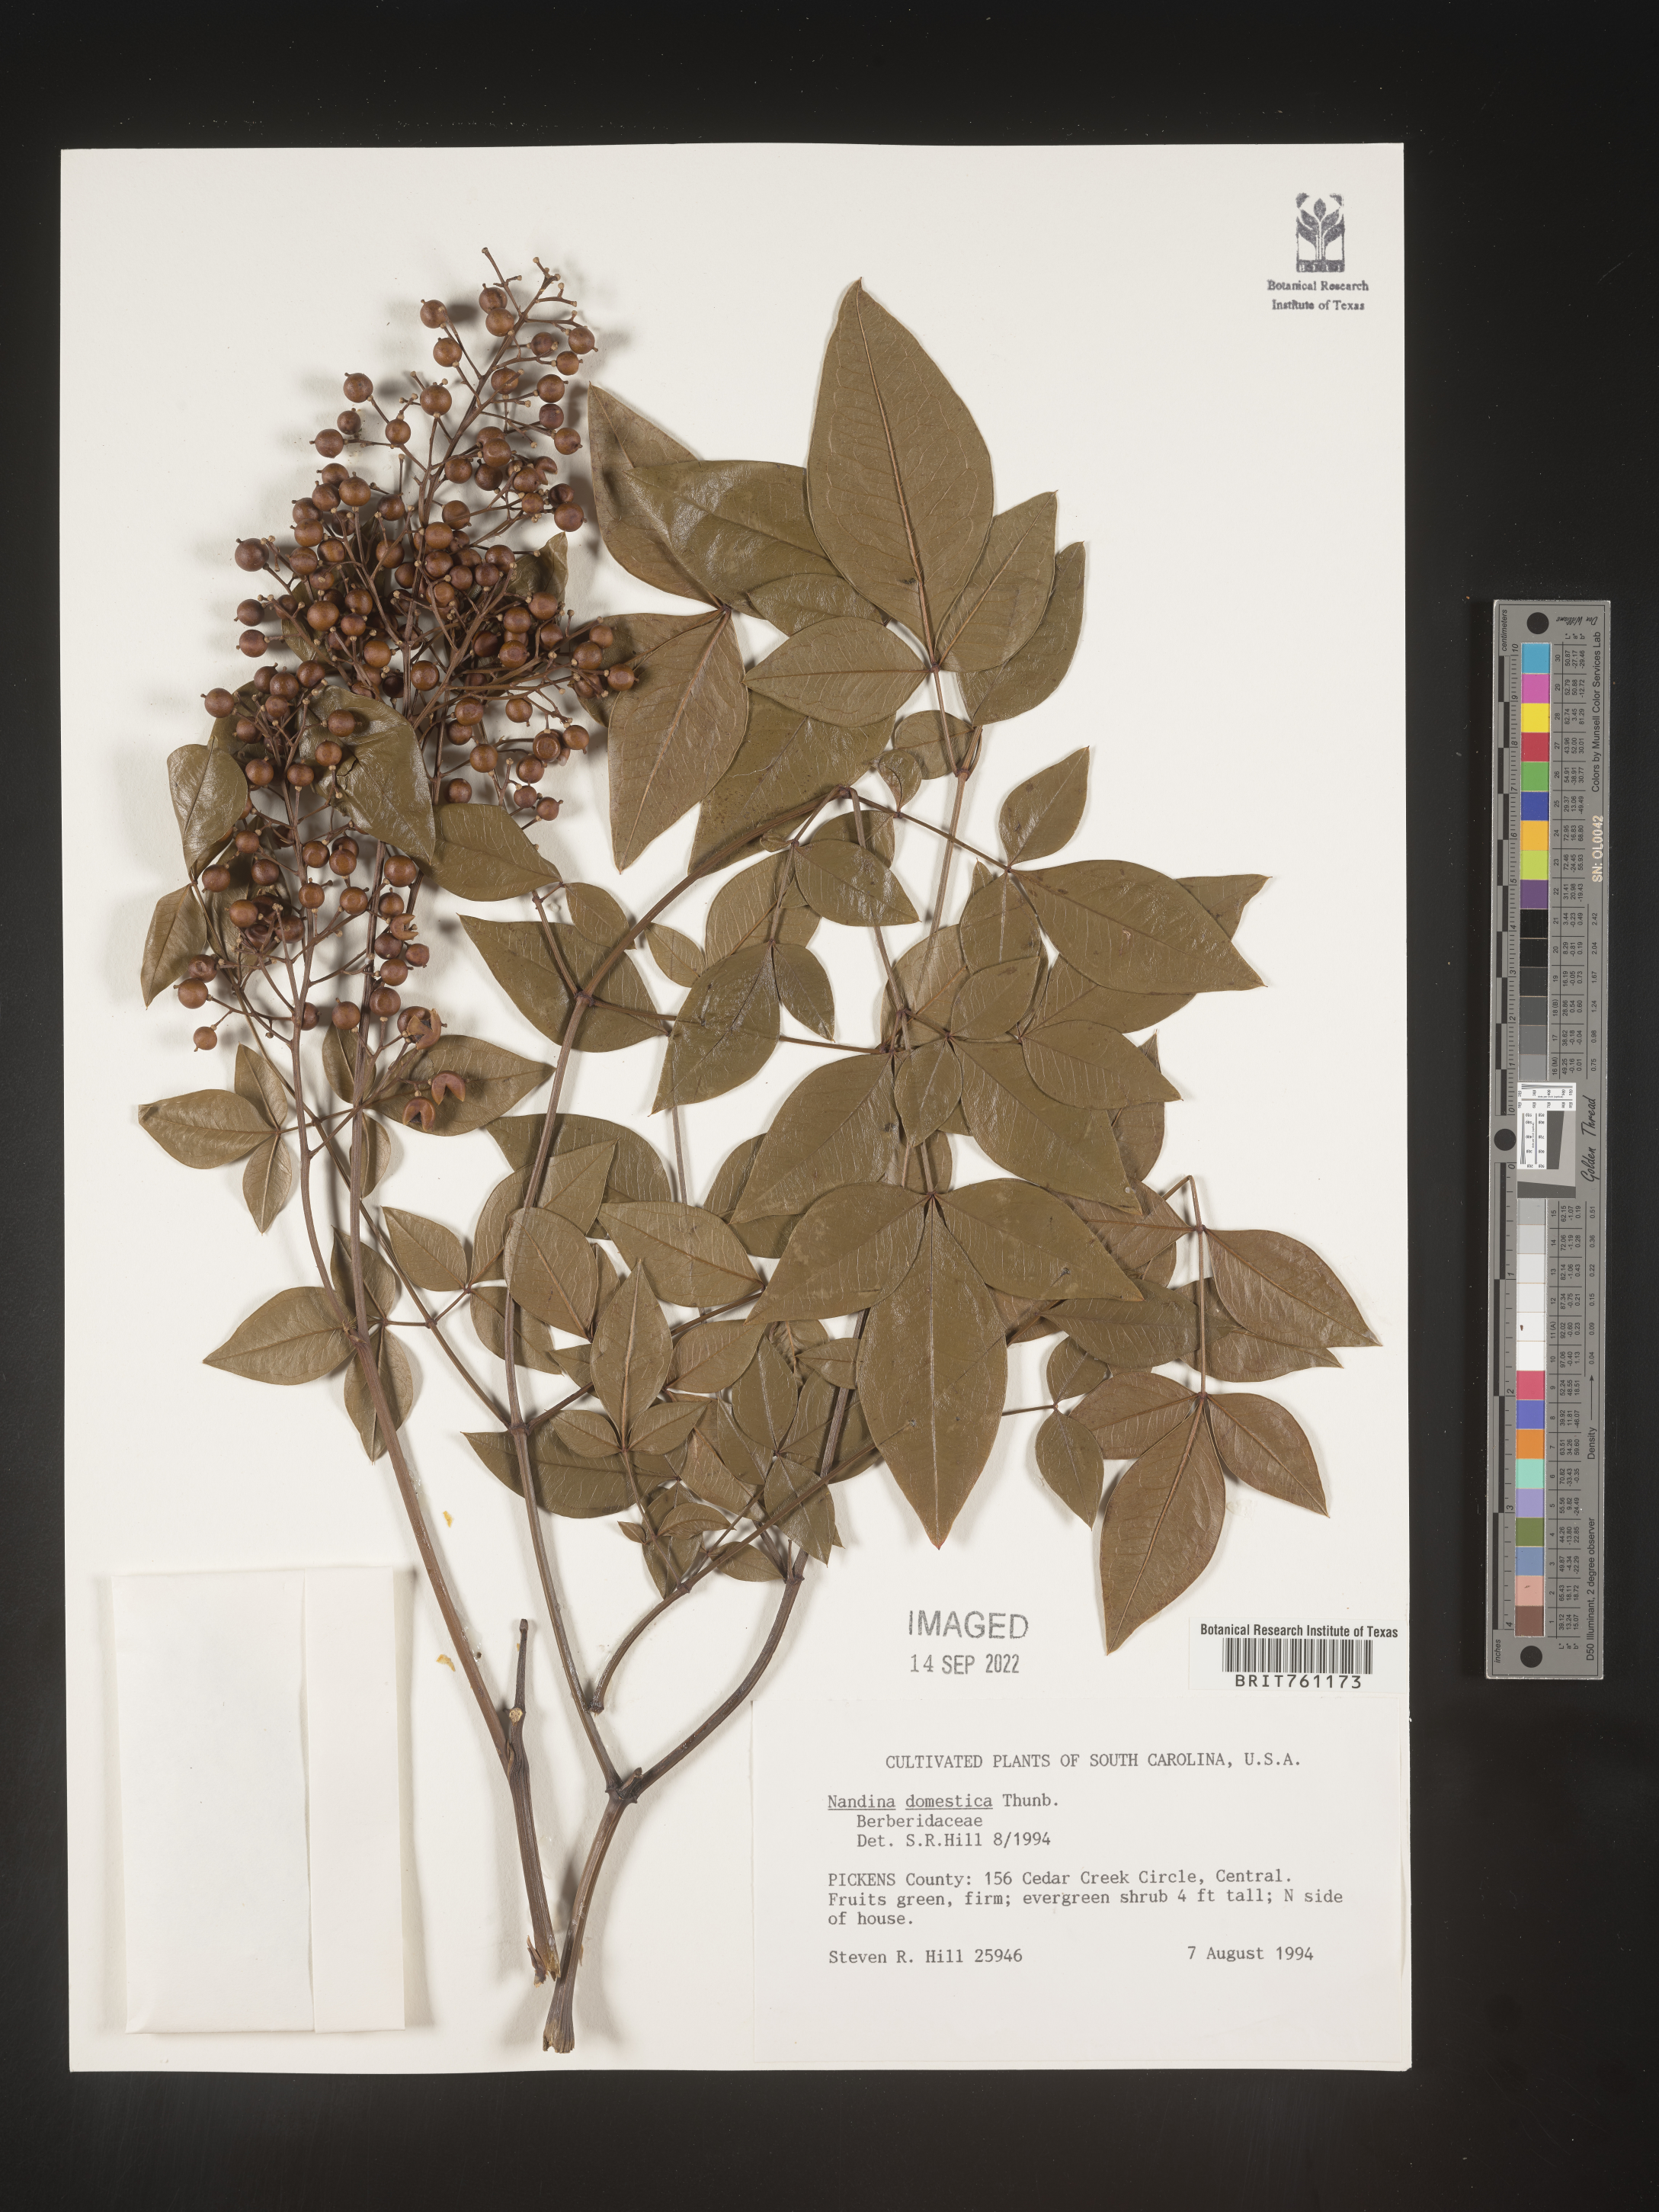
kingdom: Plantae
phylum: Tracheophyta
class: Magnoliopsida
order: Ranunculales
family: Berberidaceae
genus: Nandina
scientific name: Nandina
